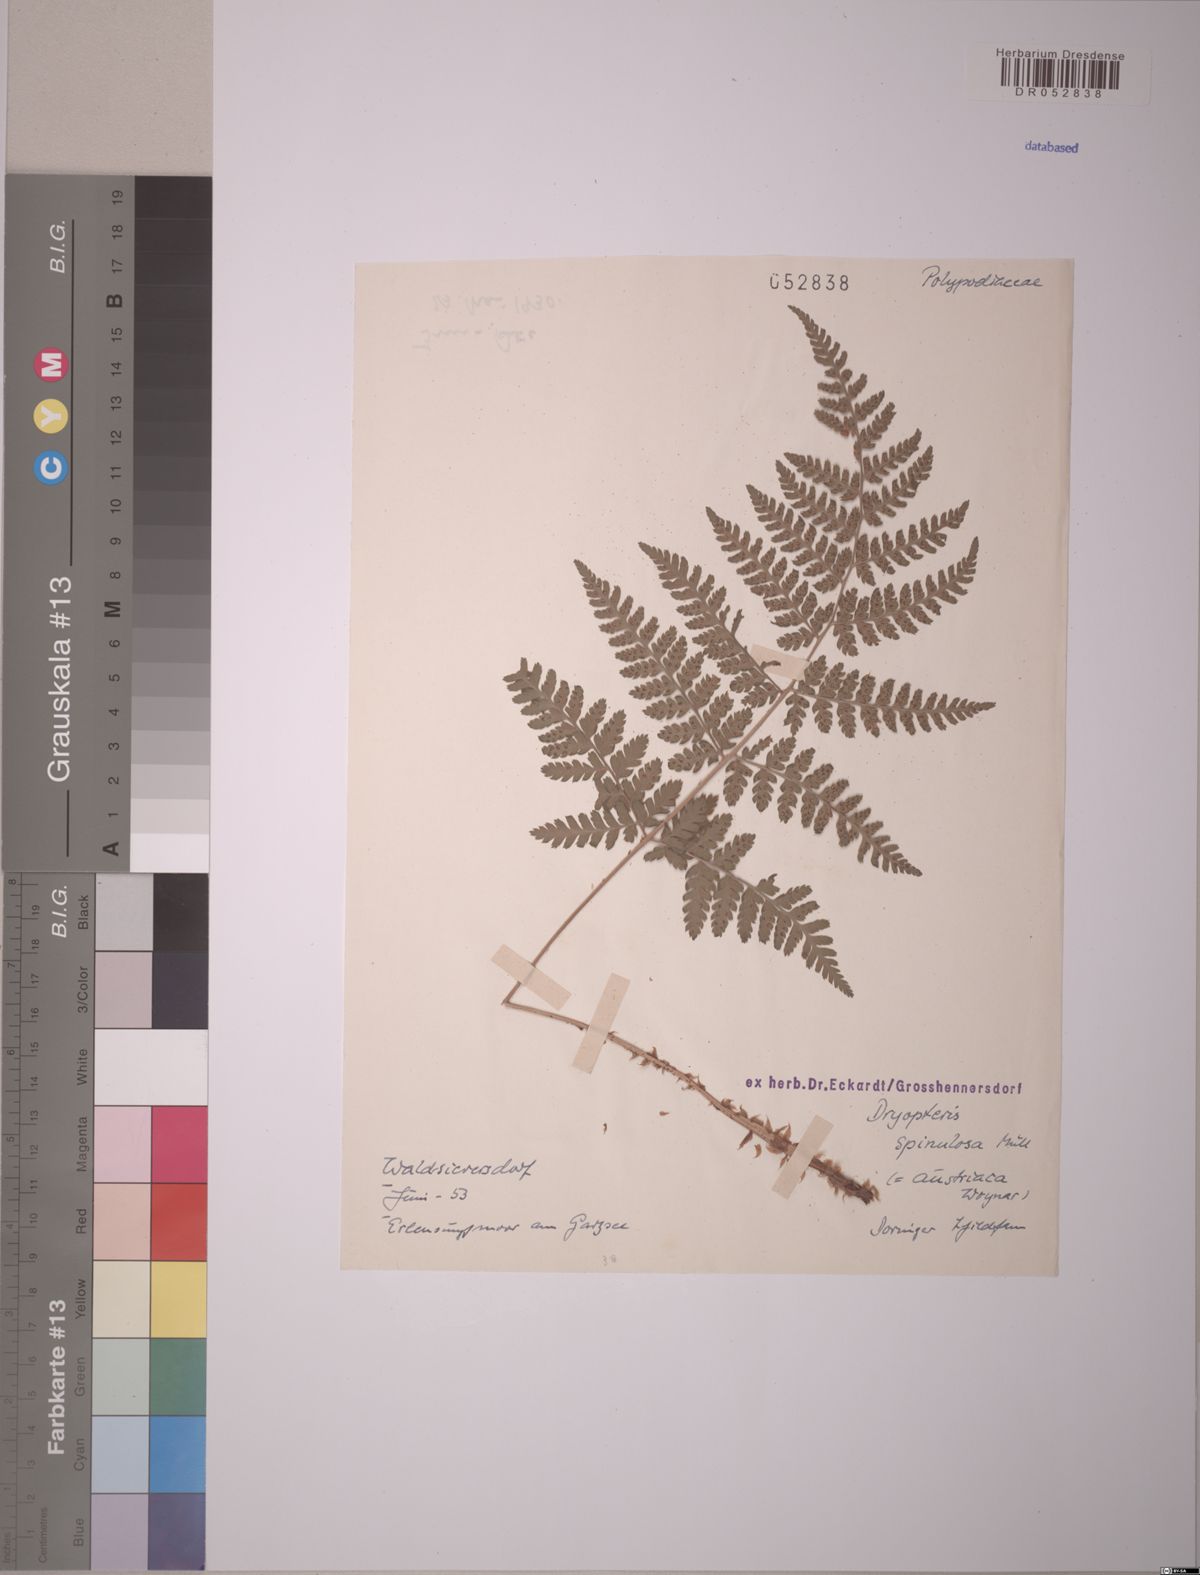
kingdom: Plantae
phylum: Tracheophyta
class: Polypodiopsida
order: Polypodiales
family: Dryopteridaceae
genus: Dryopteris
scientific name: Dryopteris carthusiana
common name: Narrow buckler-fern
